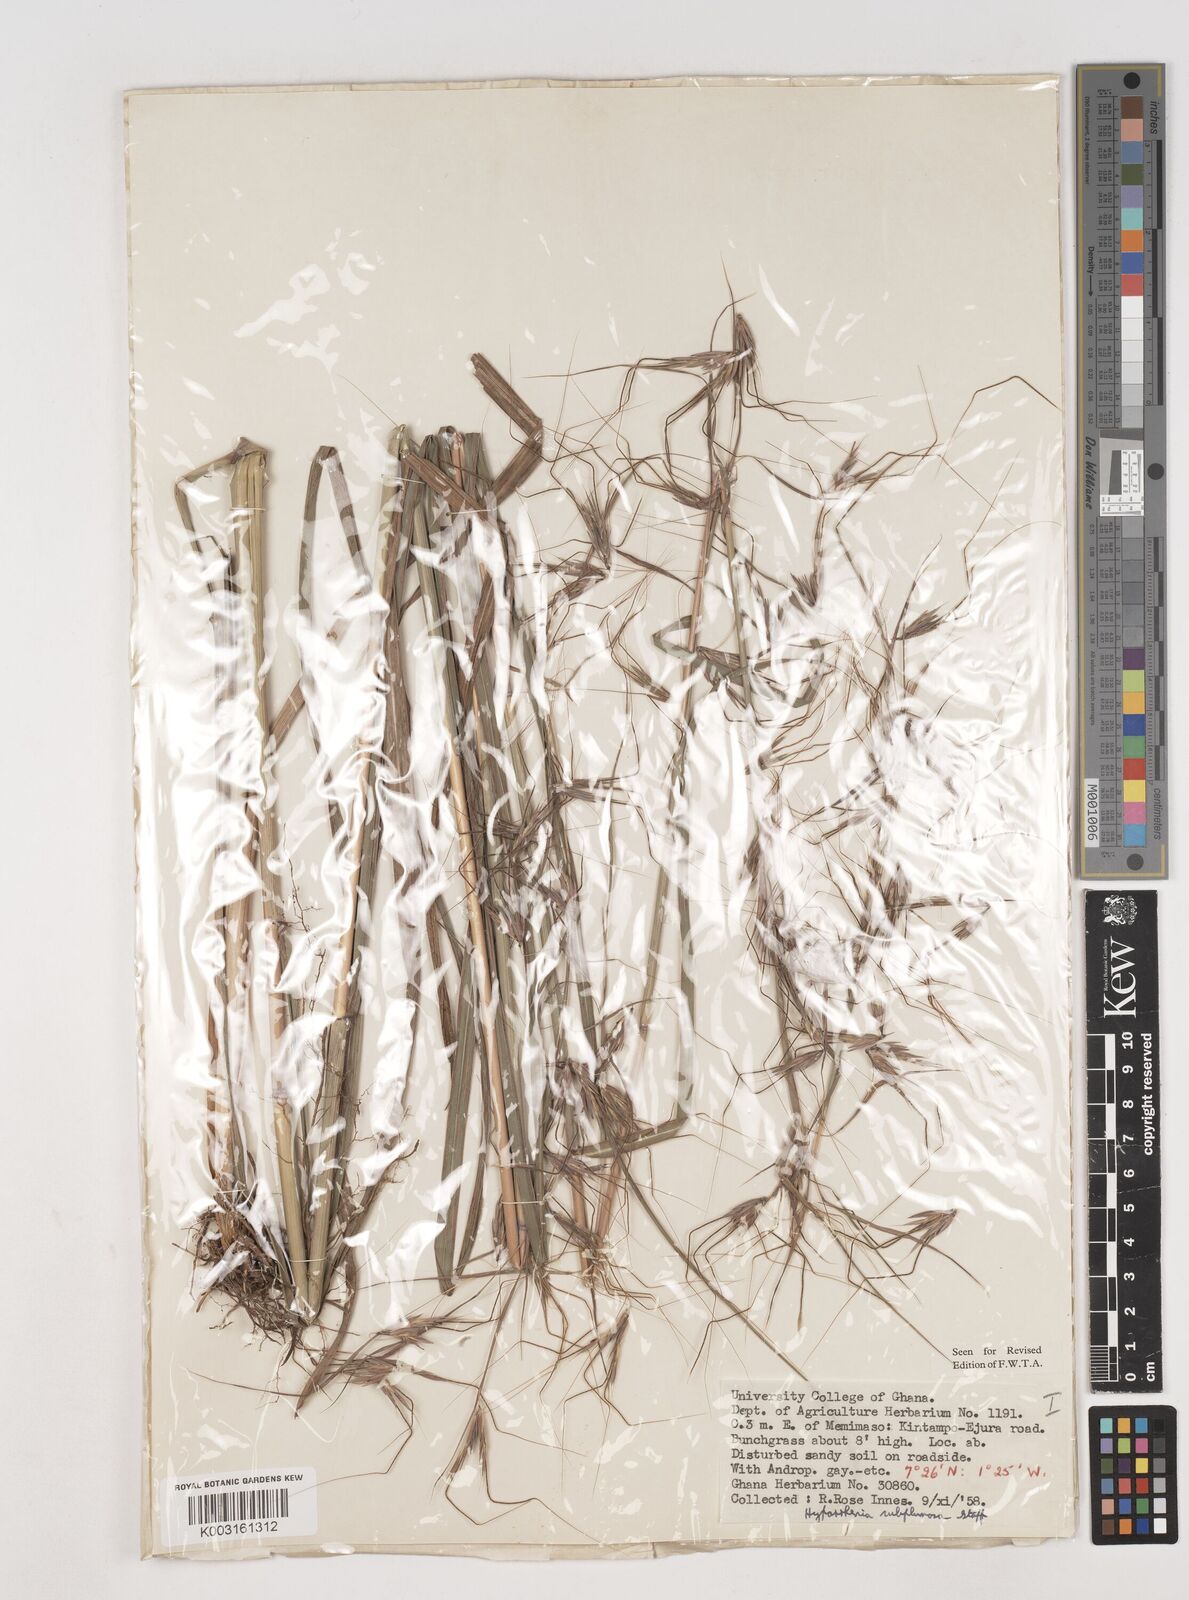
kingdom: Plantae
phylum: Tracheophyta
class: Liliopsida
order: Poales
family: Poaceae
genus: Hyparrhenia
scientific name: Hyparrhenia
